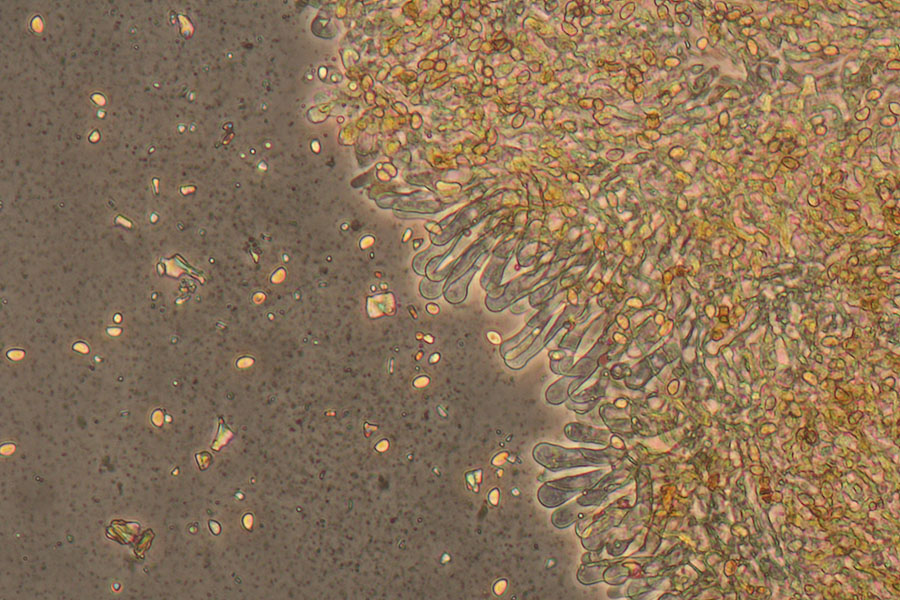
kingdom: Fungi
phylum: Basidiomycota
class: Agaricomycetes
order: Agaricales
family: Crepidotaceae
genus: Simocybe
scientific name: Simocybe centunculus
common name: enlig skyggehat
